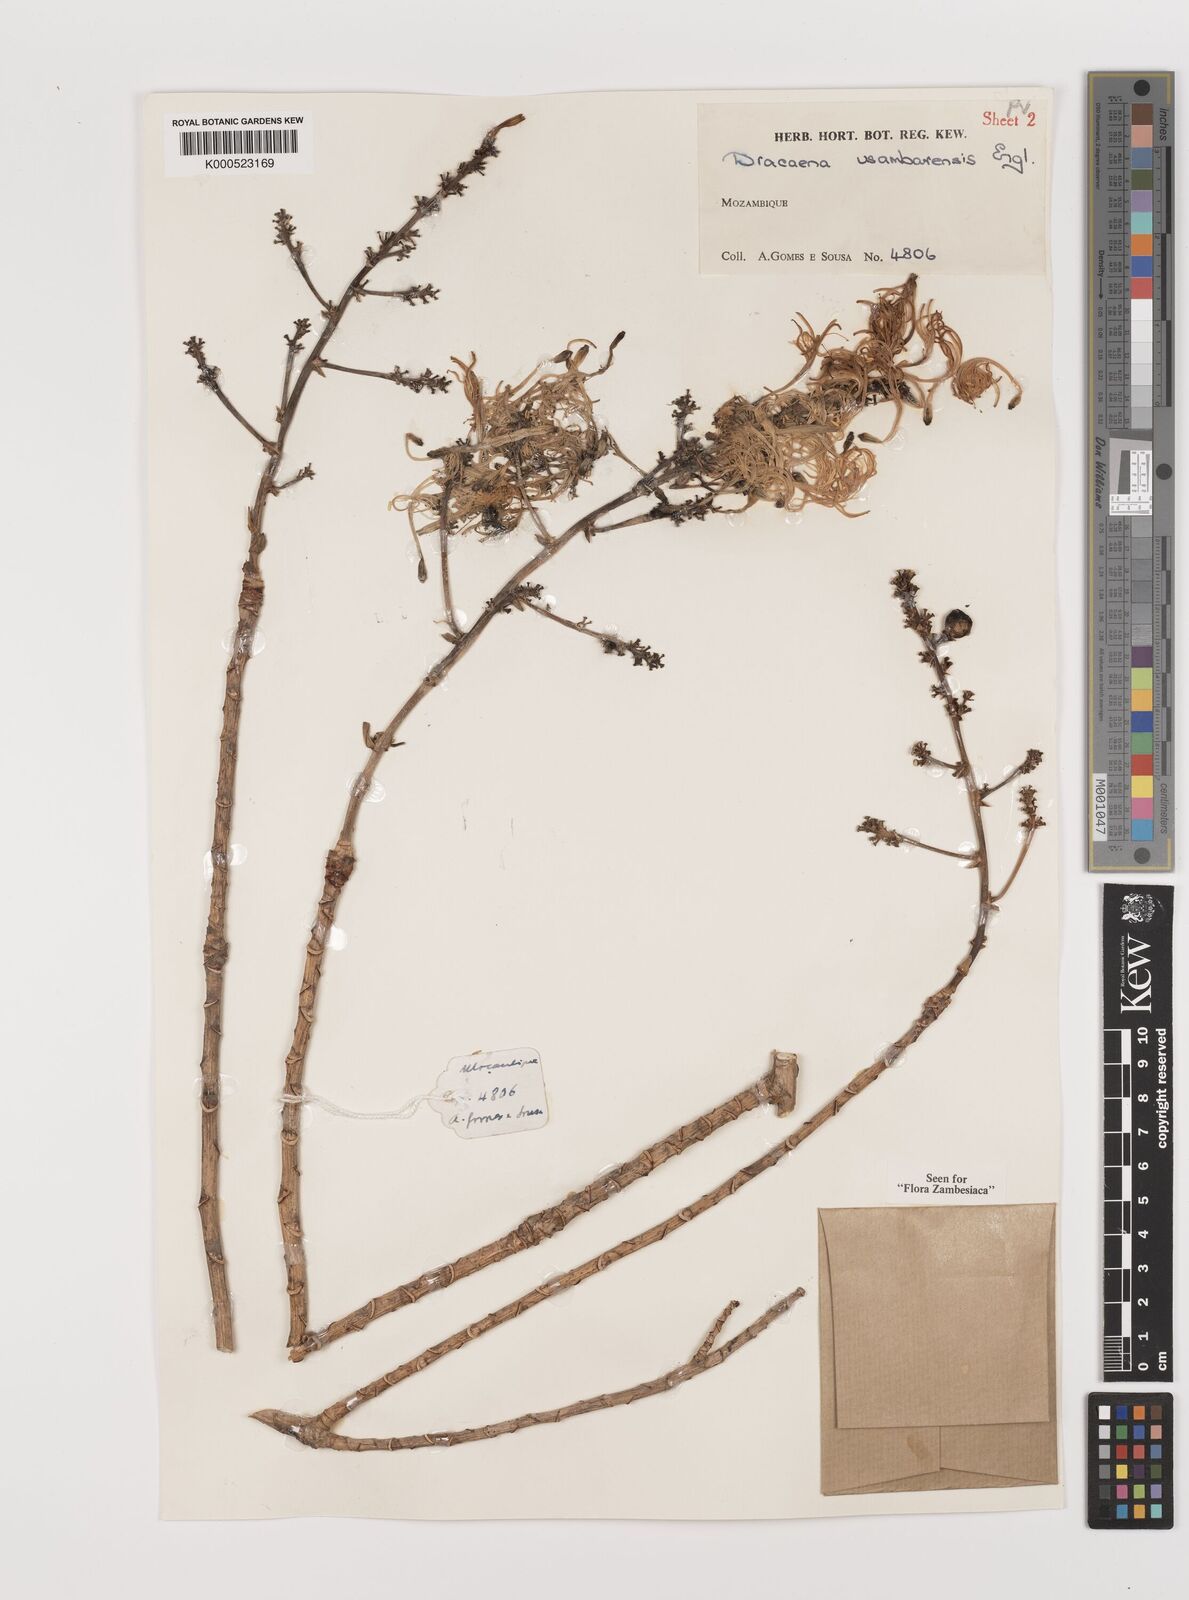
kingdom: Plantae
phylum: Tracheophyta
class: Liliopsida
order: Asparagales
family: Asparagaceae
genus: Dracaena
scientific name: Dracaena usambarensis
